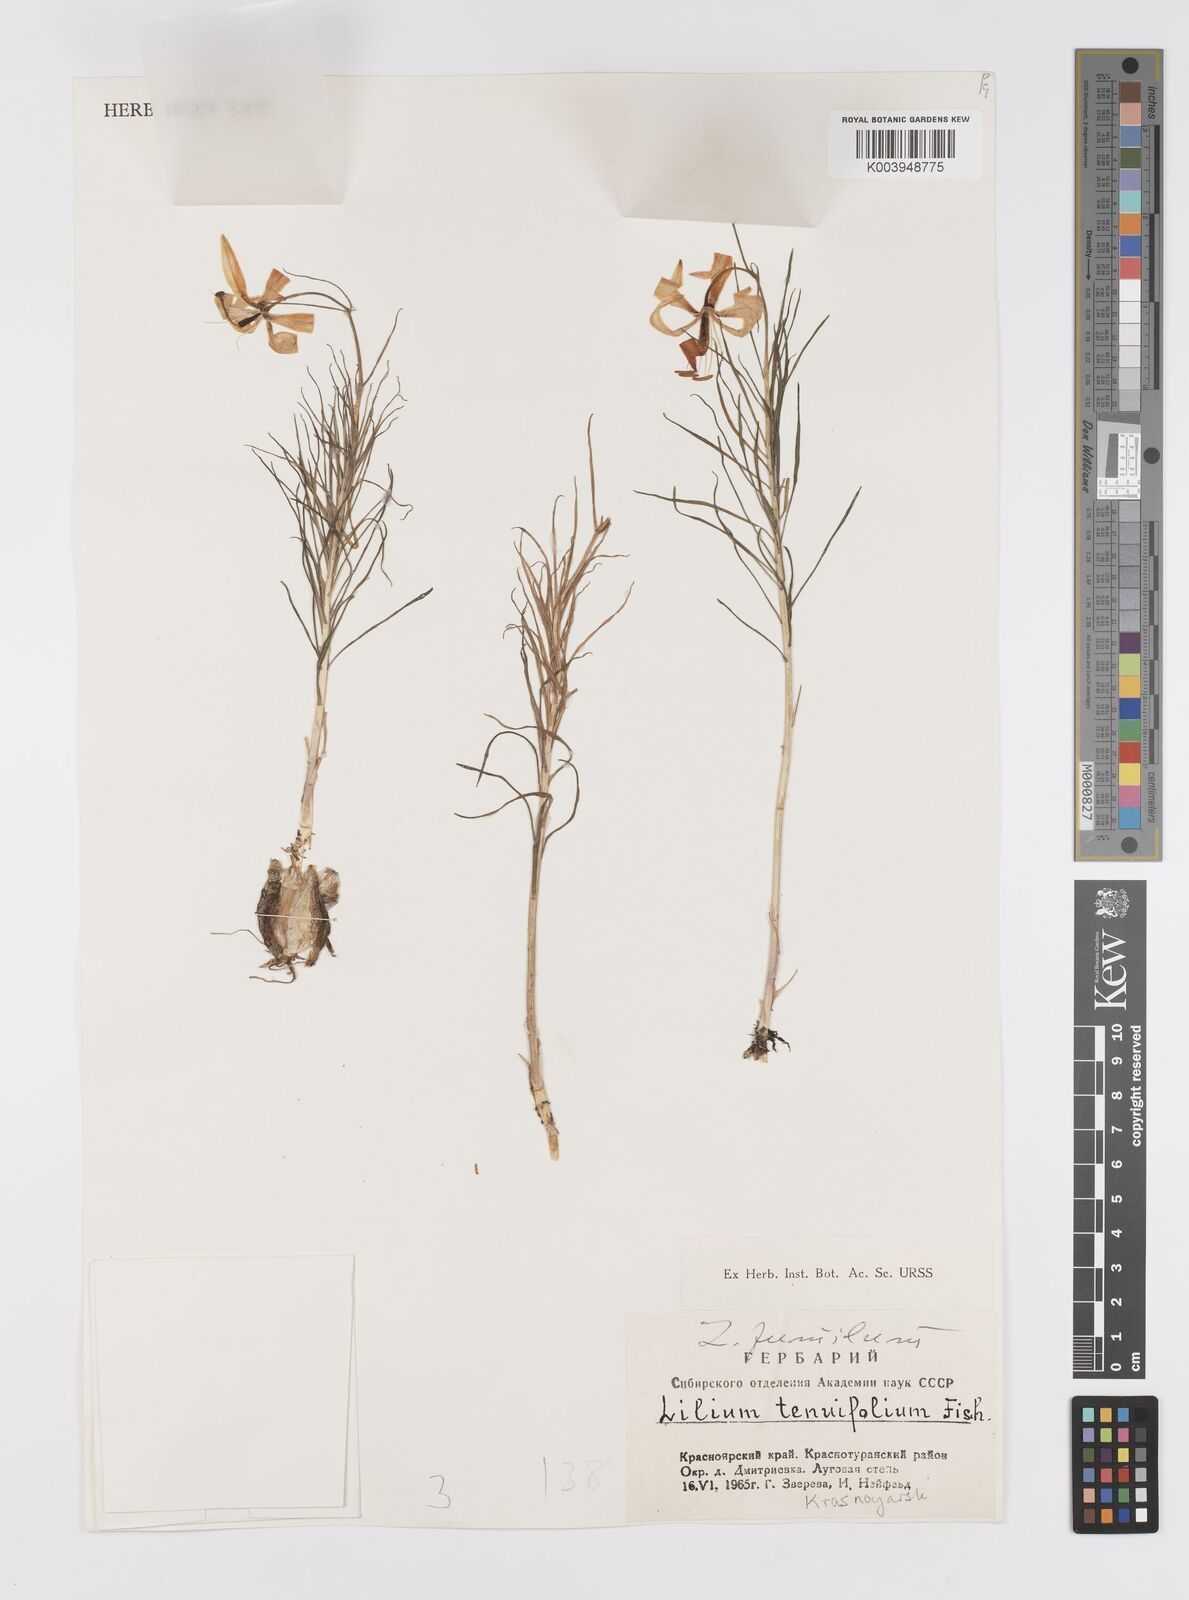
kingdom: Plantae
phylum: Tracheophyta
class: Liliopsida
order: Liliales
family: Liliaceae
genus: Lilium
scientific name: Lilium pumilum
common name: Coral lily
